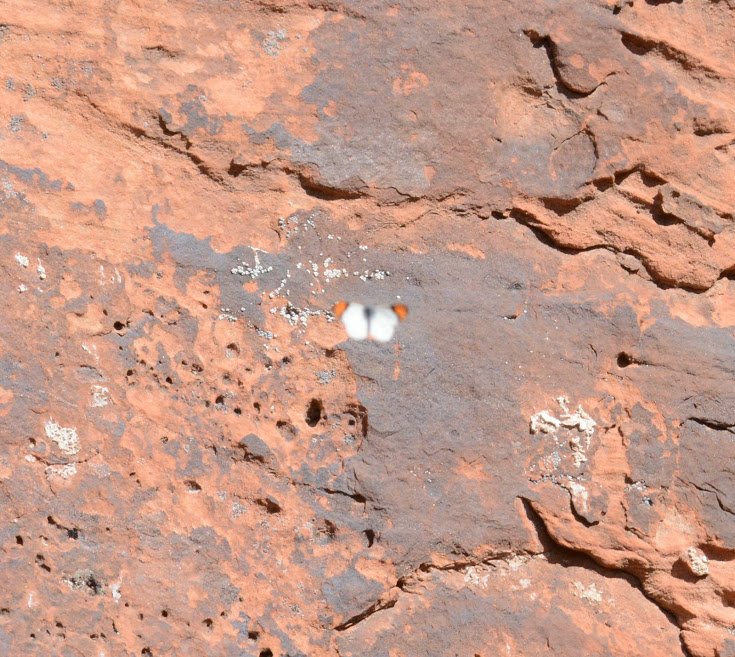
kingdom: Animalia
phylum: Arthropoda
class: Insecta
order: Lepidoptera
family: Pieridae
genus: Anthocharis
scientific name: Anthocharis sara
